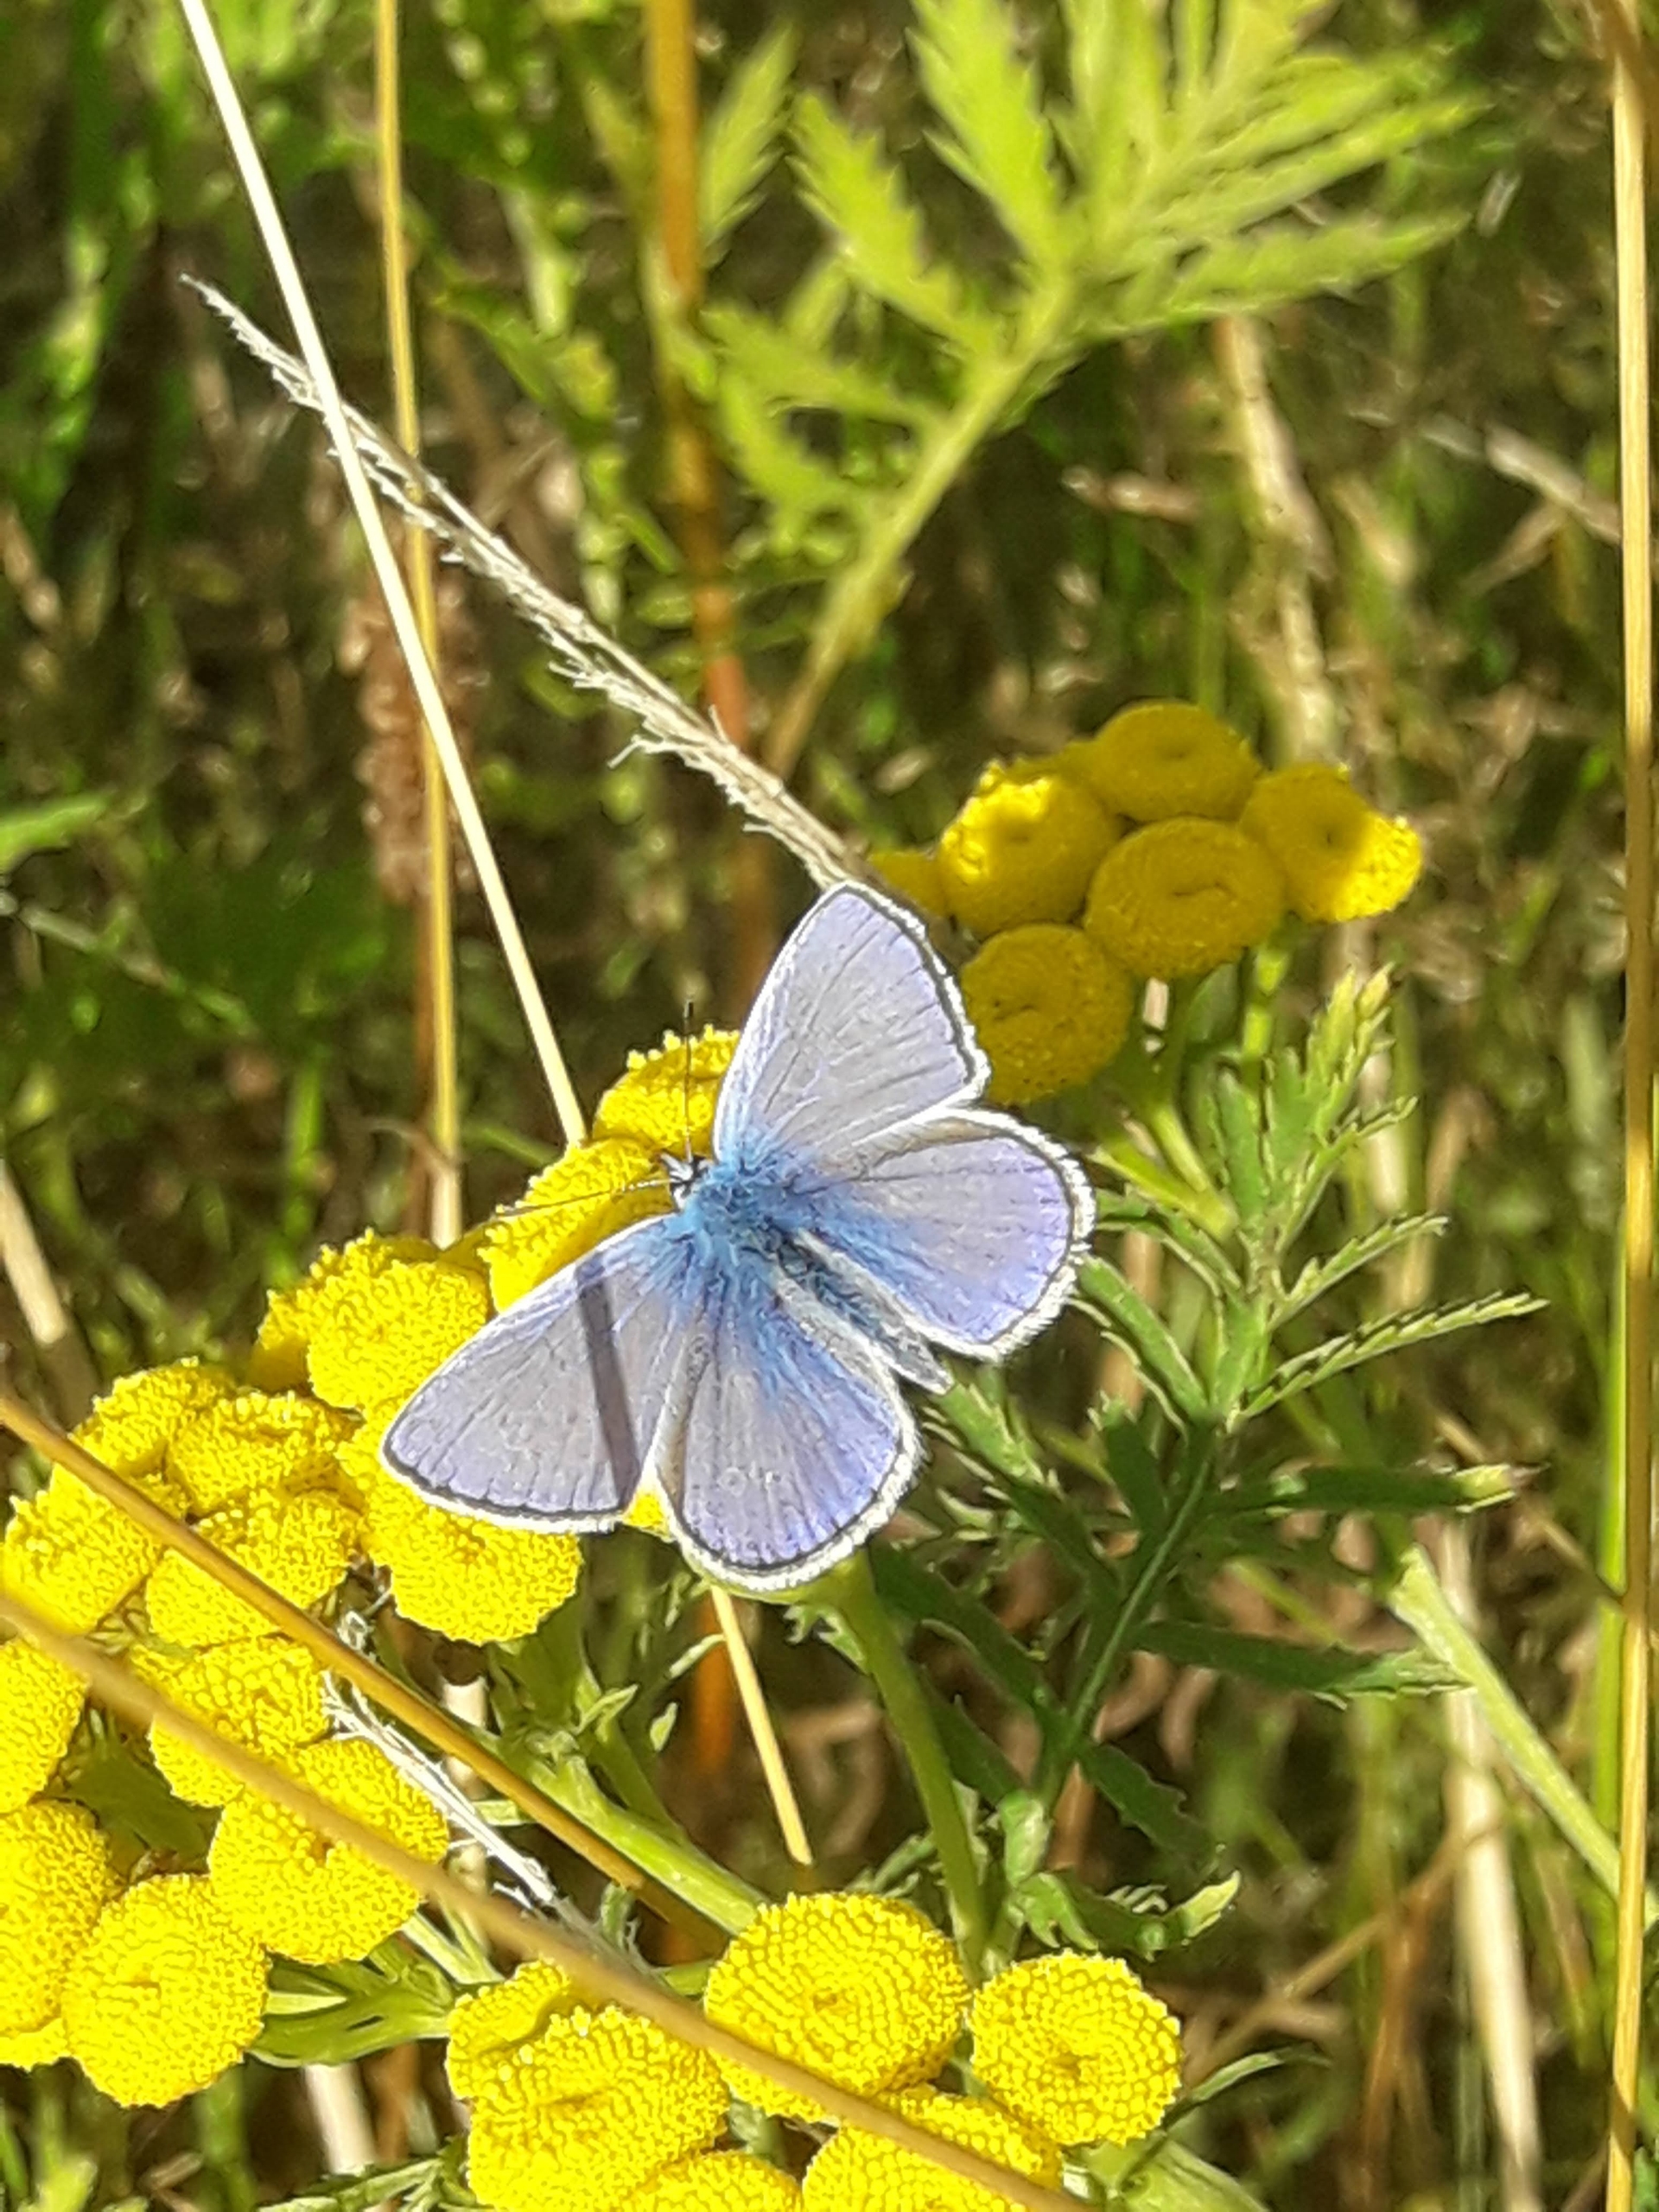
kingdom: Animalia
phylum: Arthropoda
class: Insecta
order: Lepidoptera
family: Lycaenidae
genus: Polyommatus
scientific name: Polyommatus icarus
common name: Almindelig blåfugl
